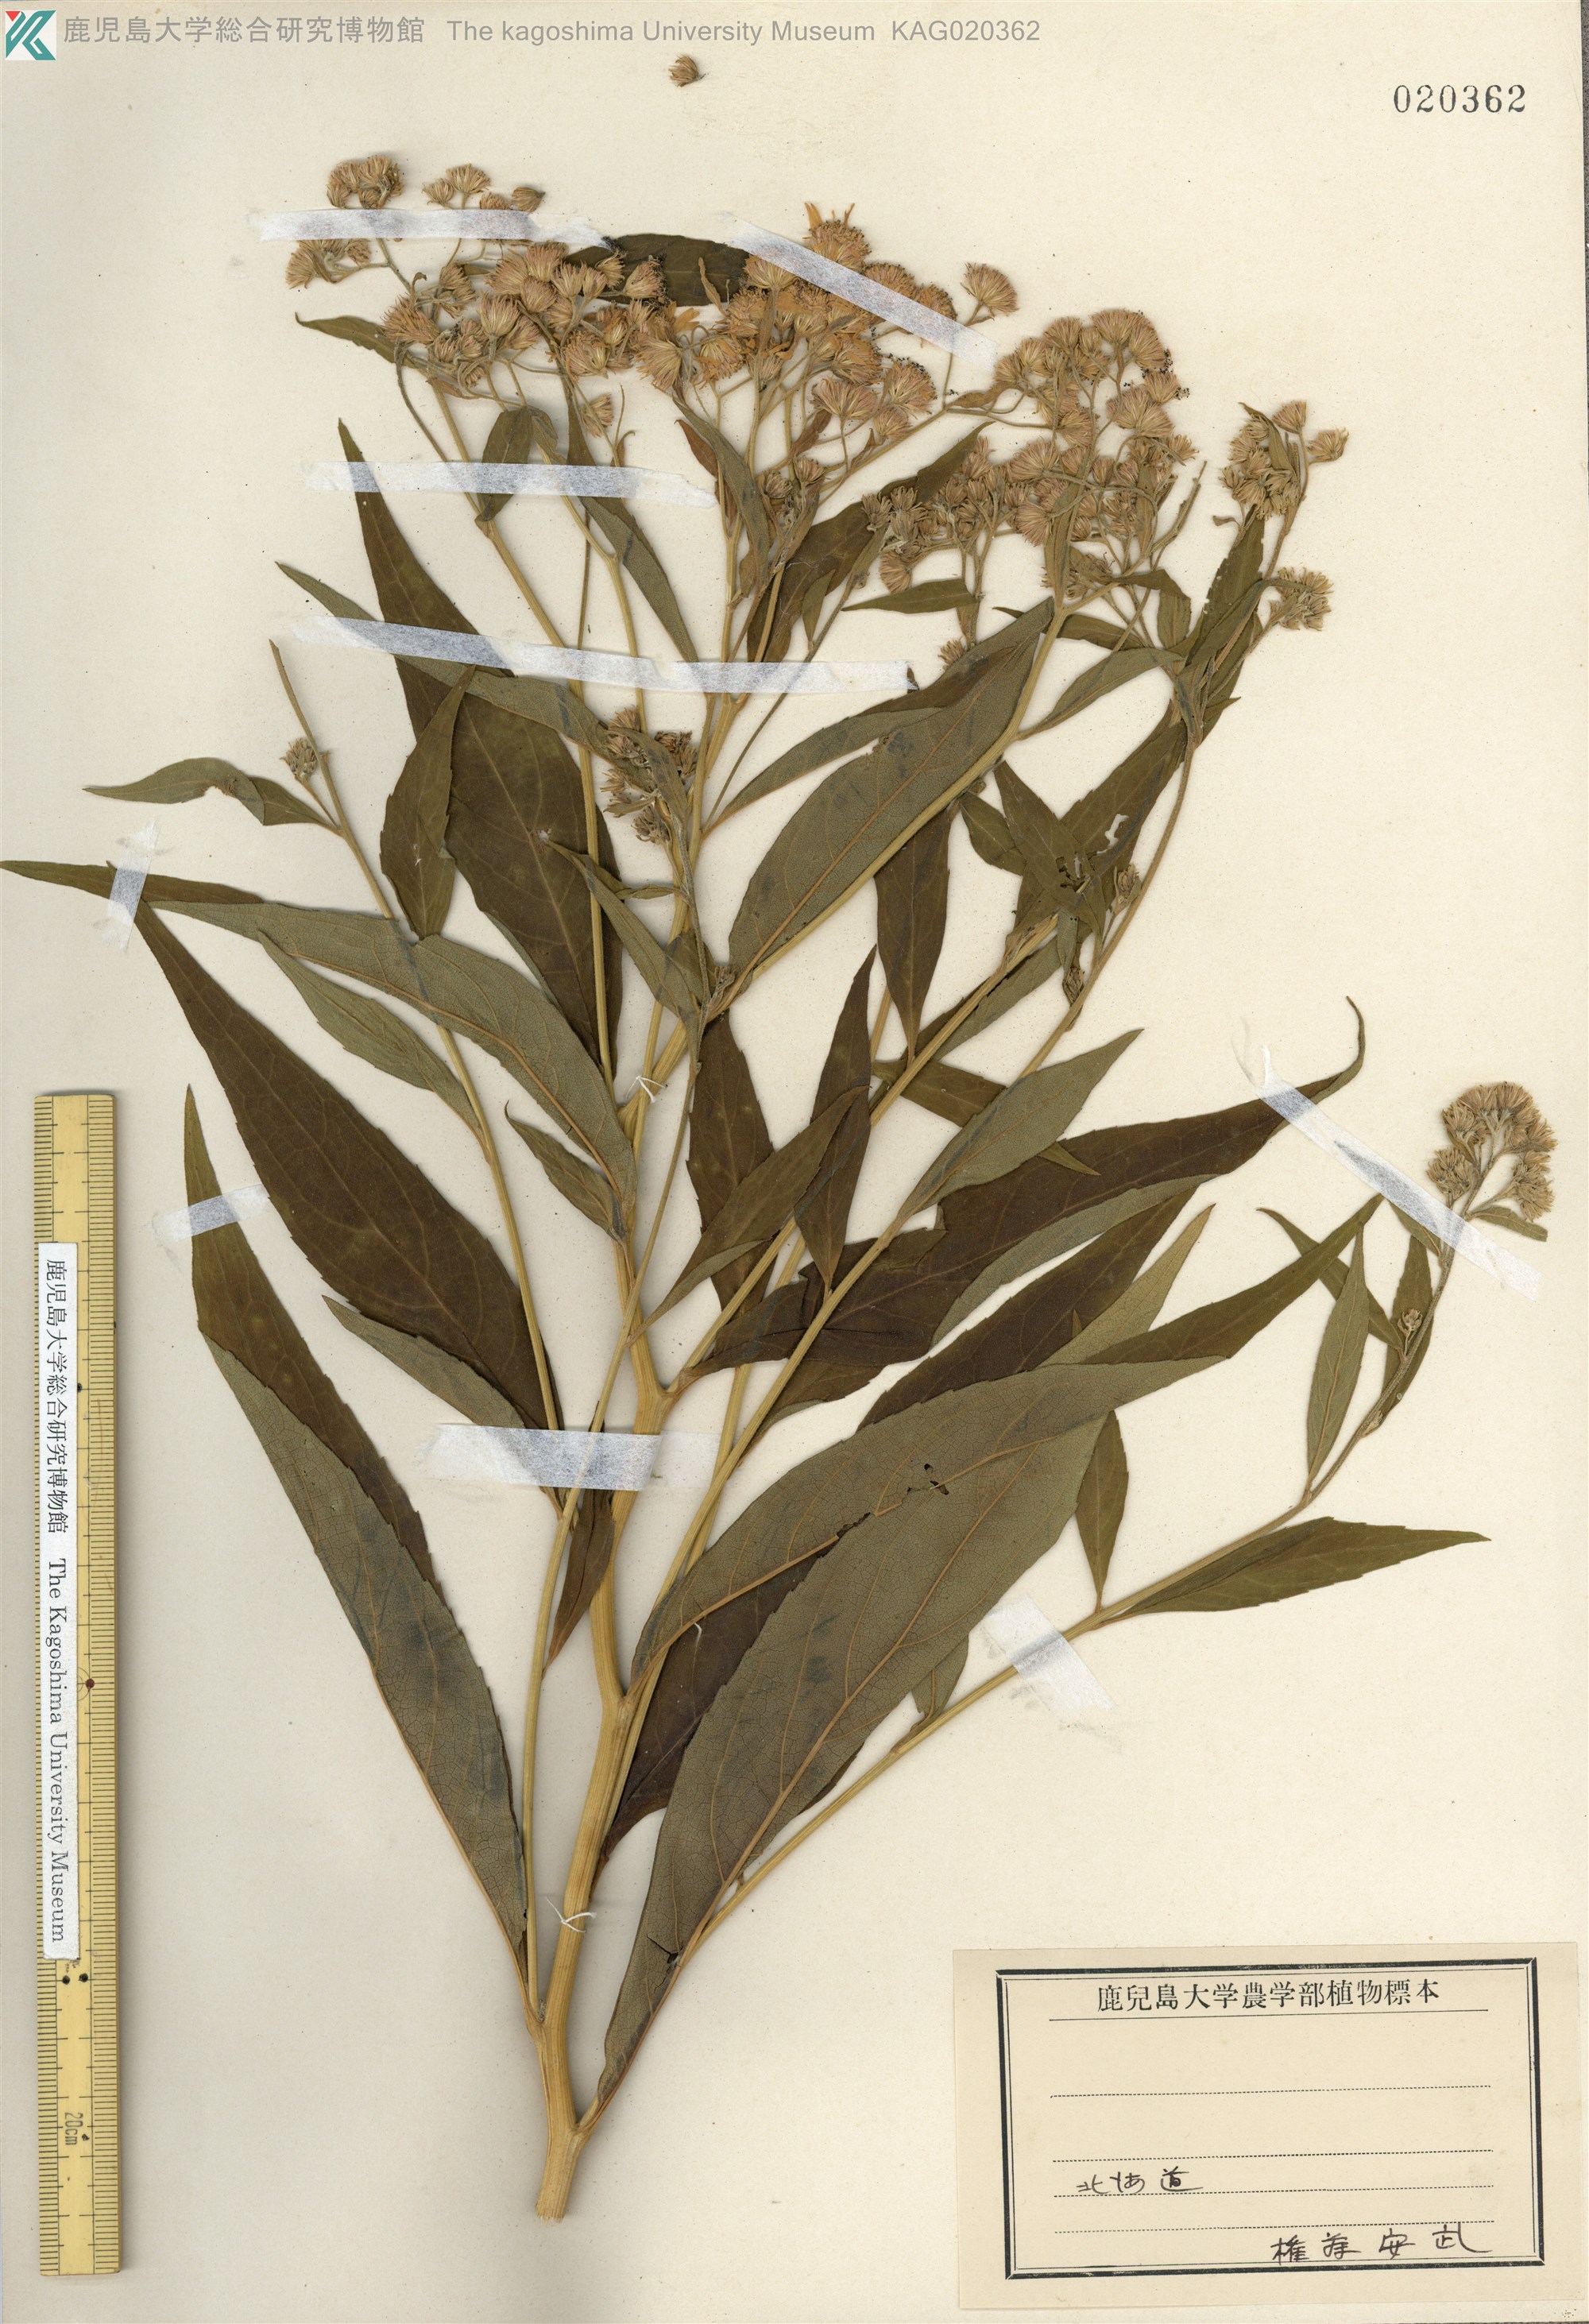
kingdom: Plantae
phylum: Tracheophyta
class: Magnoliopsida
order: Asterales
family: Asteraceae
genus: Kitamuria
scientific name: Kitamuria glehnii
